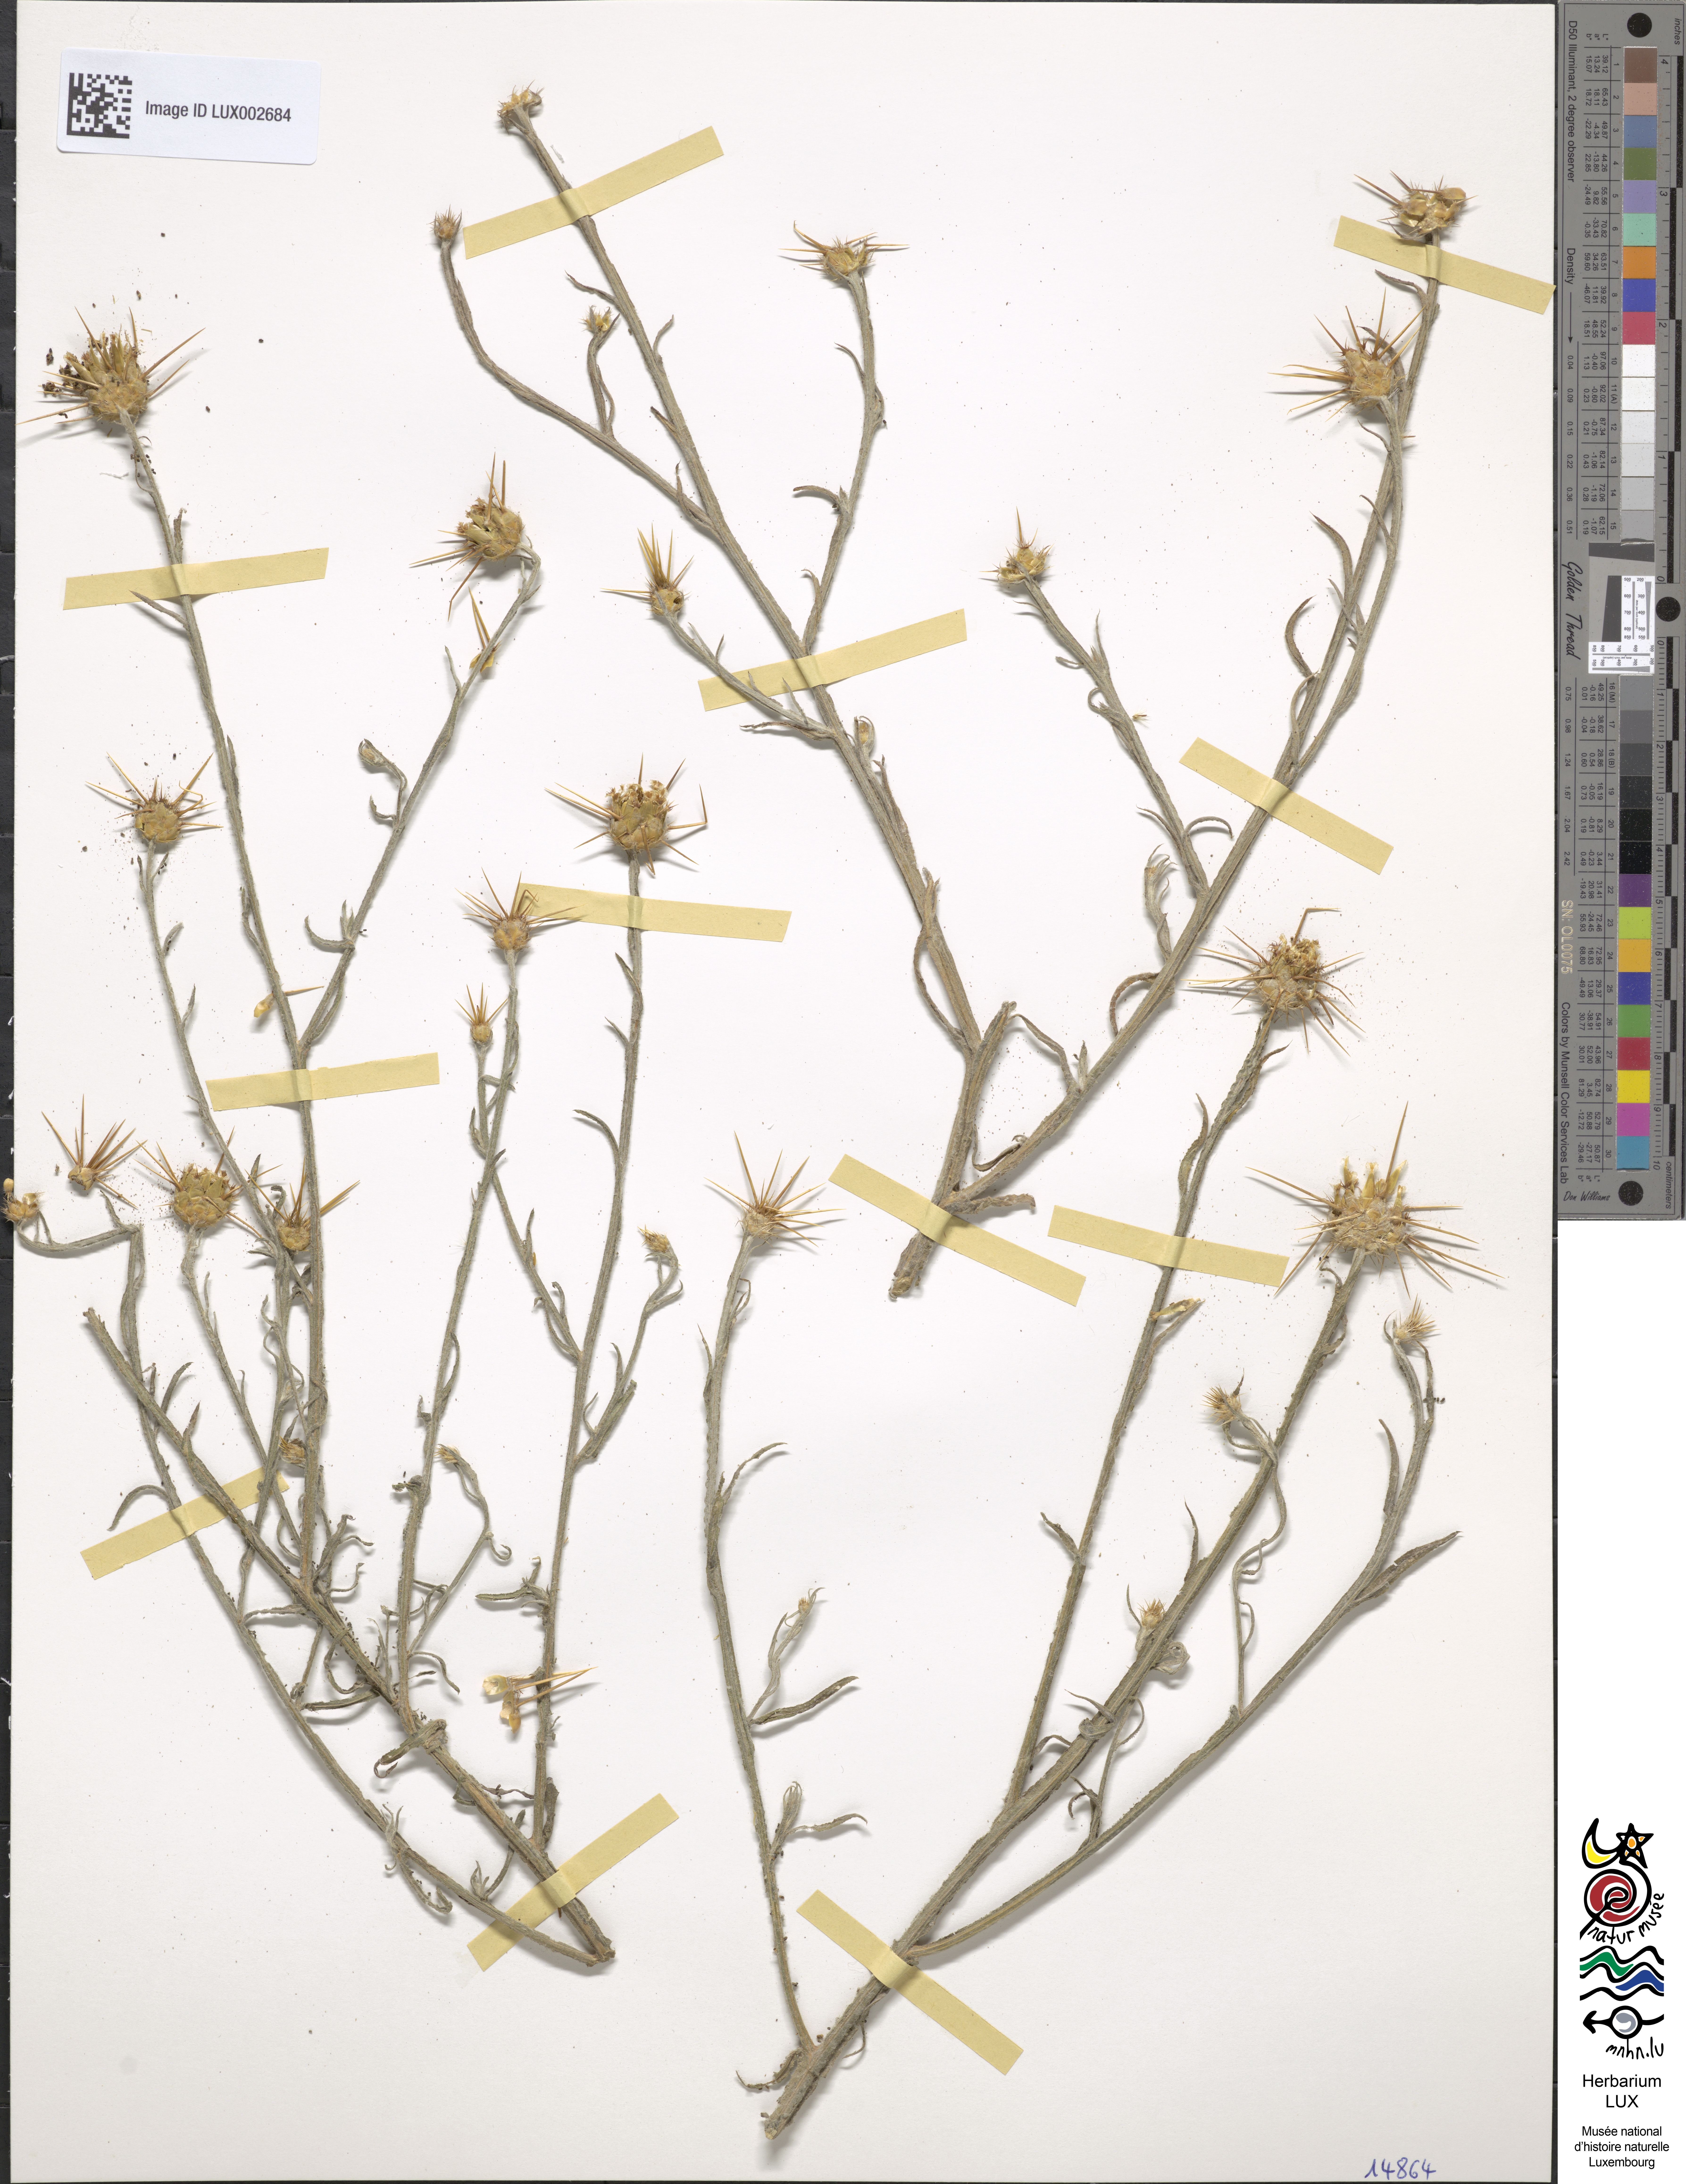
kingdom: Plantae
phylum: Tracheophyta
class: Magnoliopsida
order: Asterales
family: Asteraceae
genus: Centaurea
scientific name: Centaurea solstitialis
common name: Yellow star-thistle
